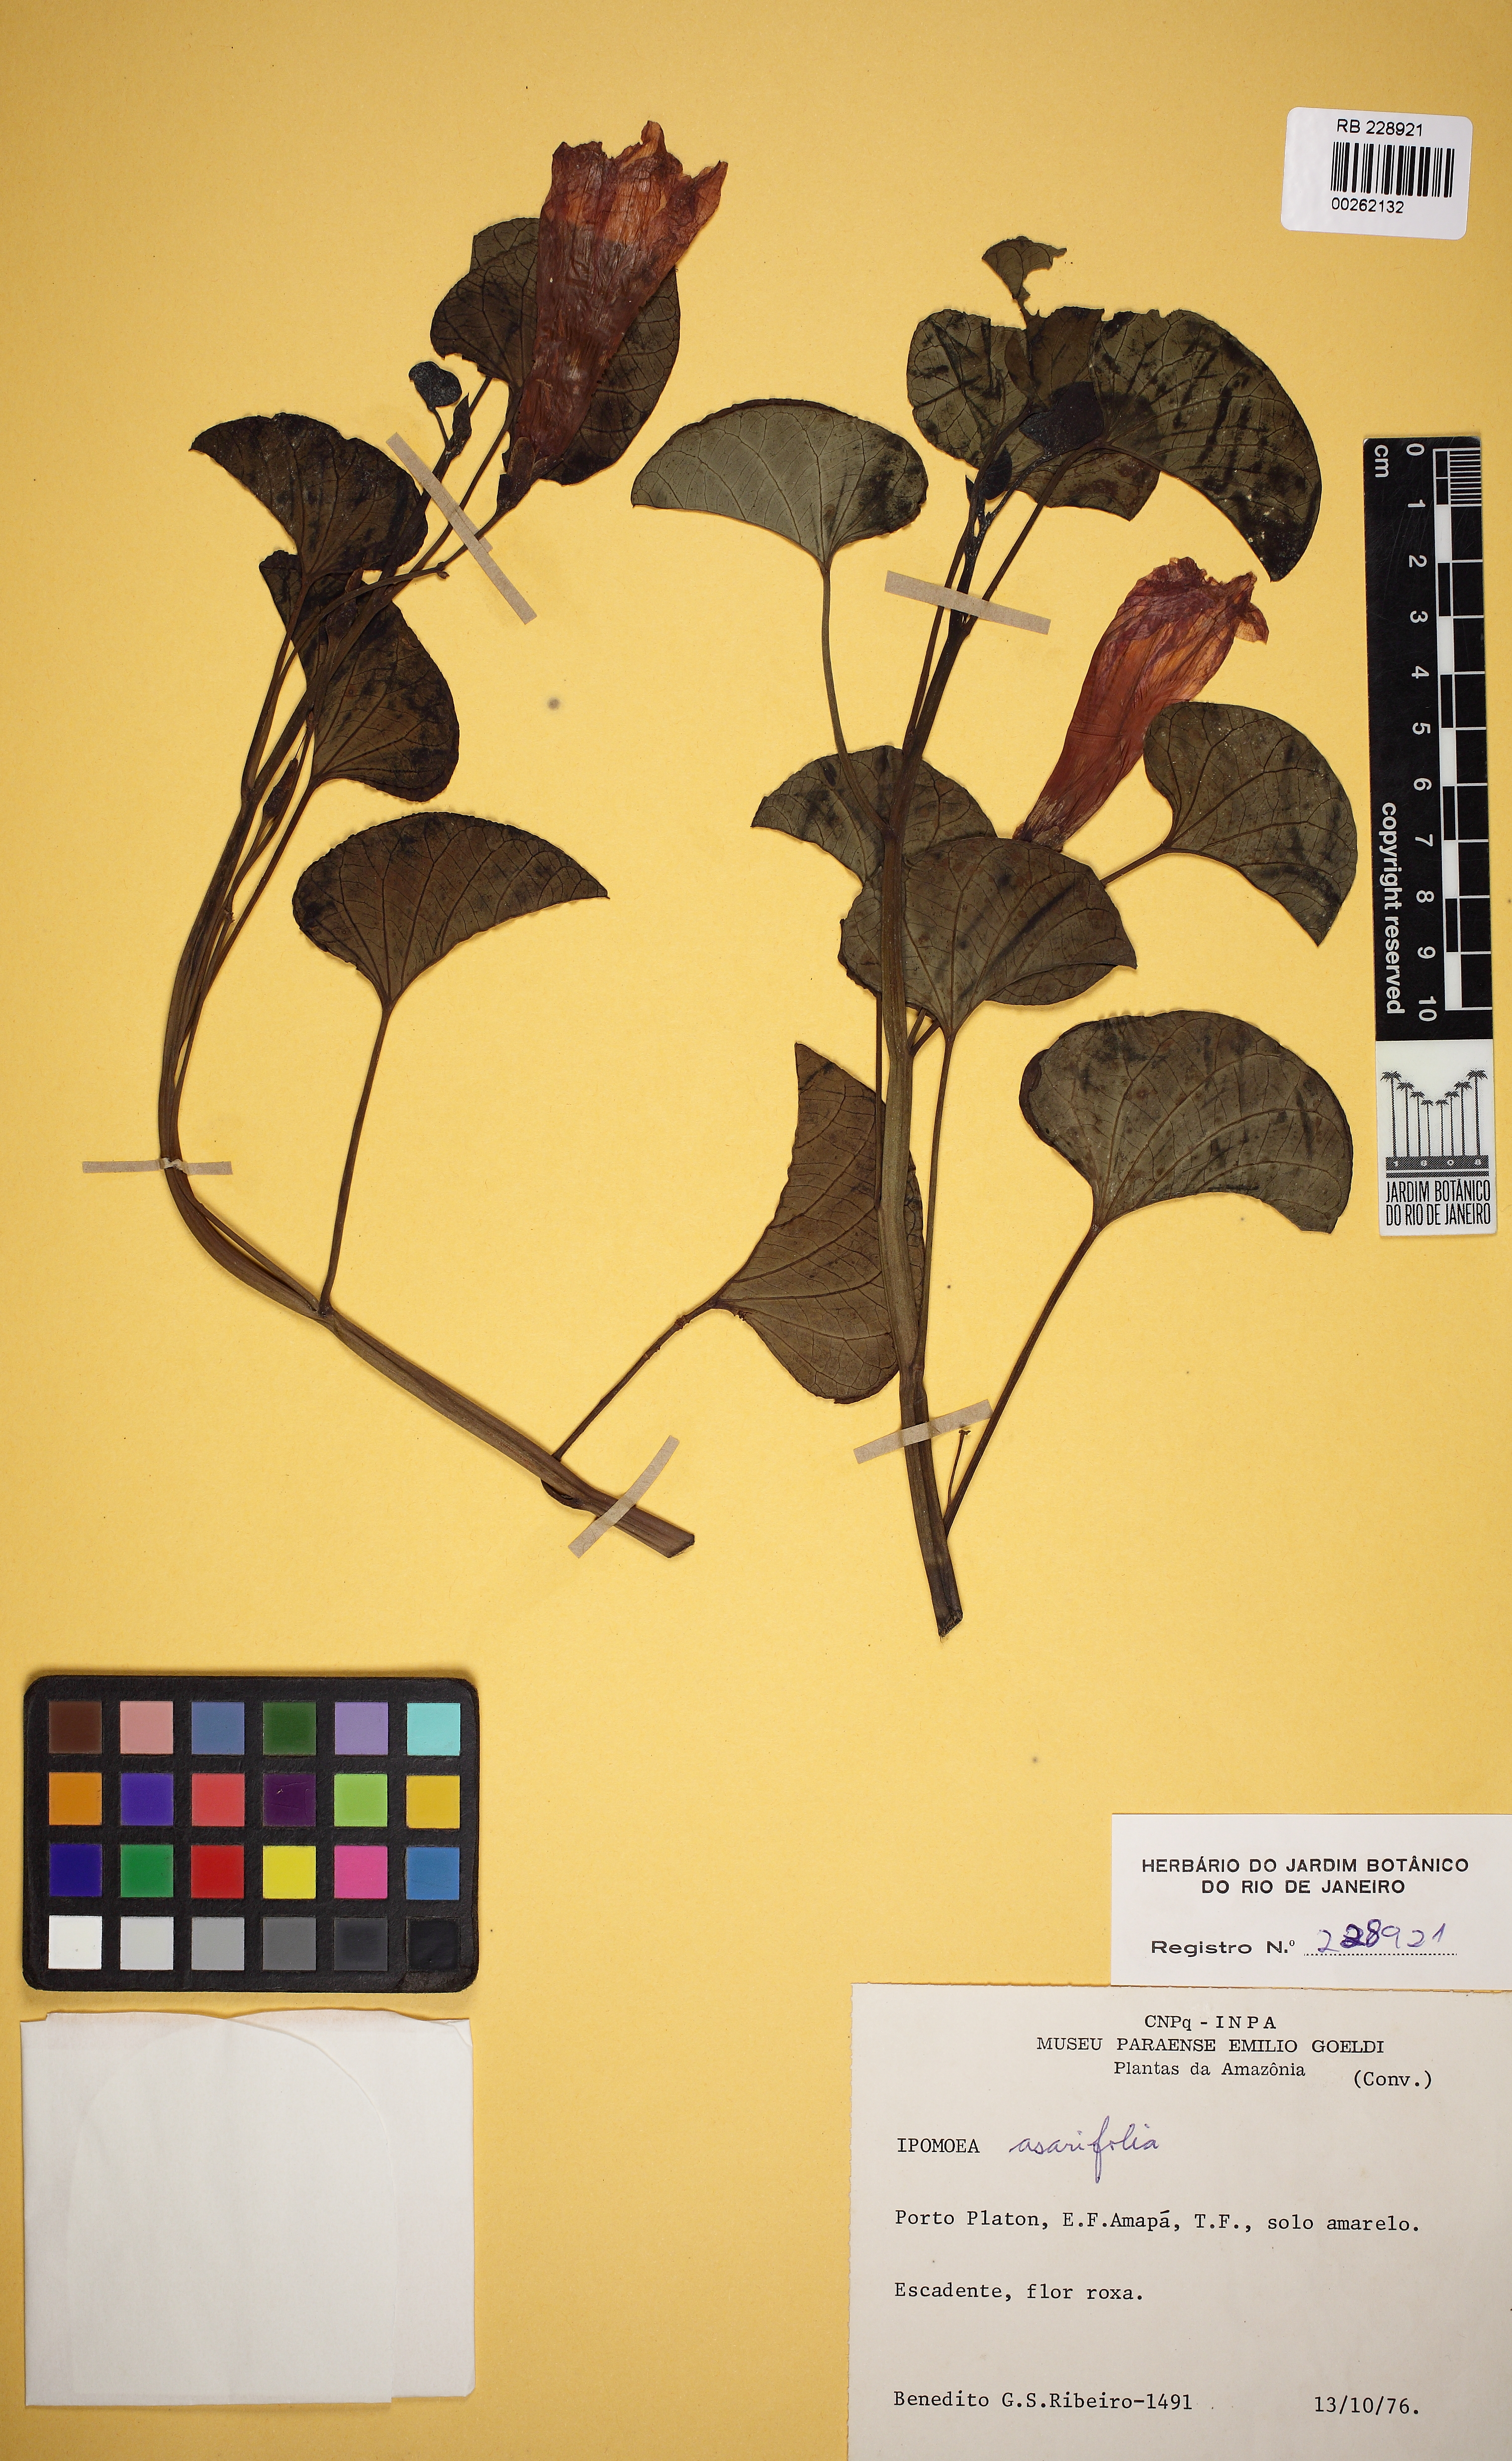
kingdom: Plantae
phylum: Tracheophyta
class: Magnoliopsida
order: Solanales
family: Convolvulaceae
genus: Ipomoea
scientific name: Ipomoea asarifolia
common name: Ginger-leaf morning-glory
